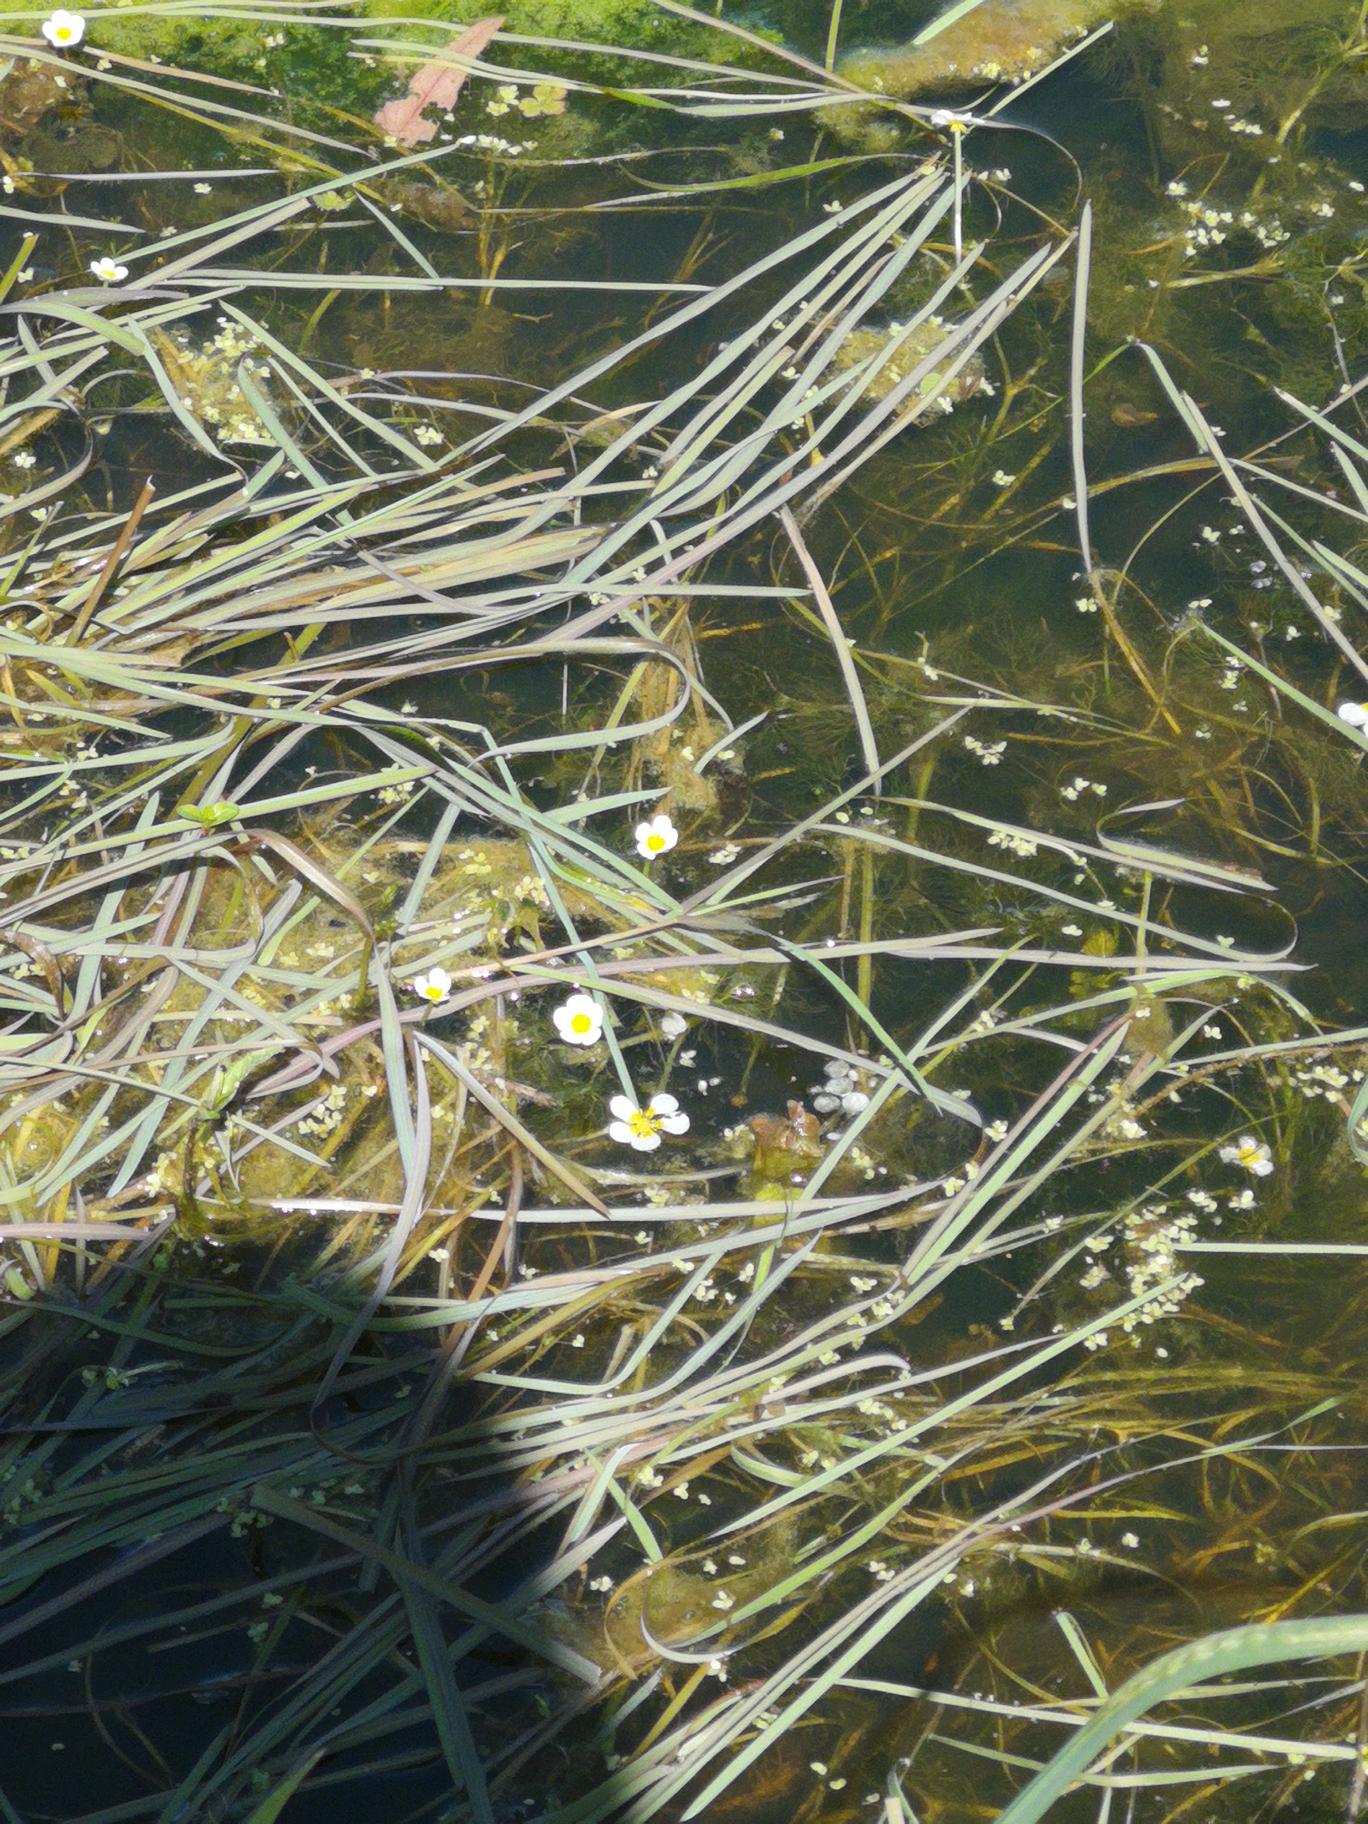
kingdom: Plantae
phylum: Tracheophyta
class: Magnoliopsida
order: Ranunculales
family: Ranunculaceae
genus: Ranunculus
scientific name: Ranunculus
